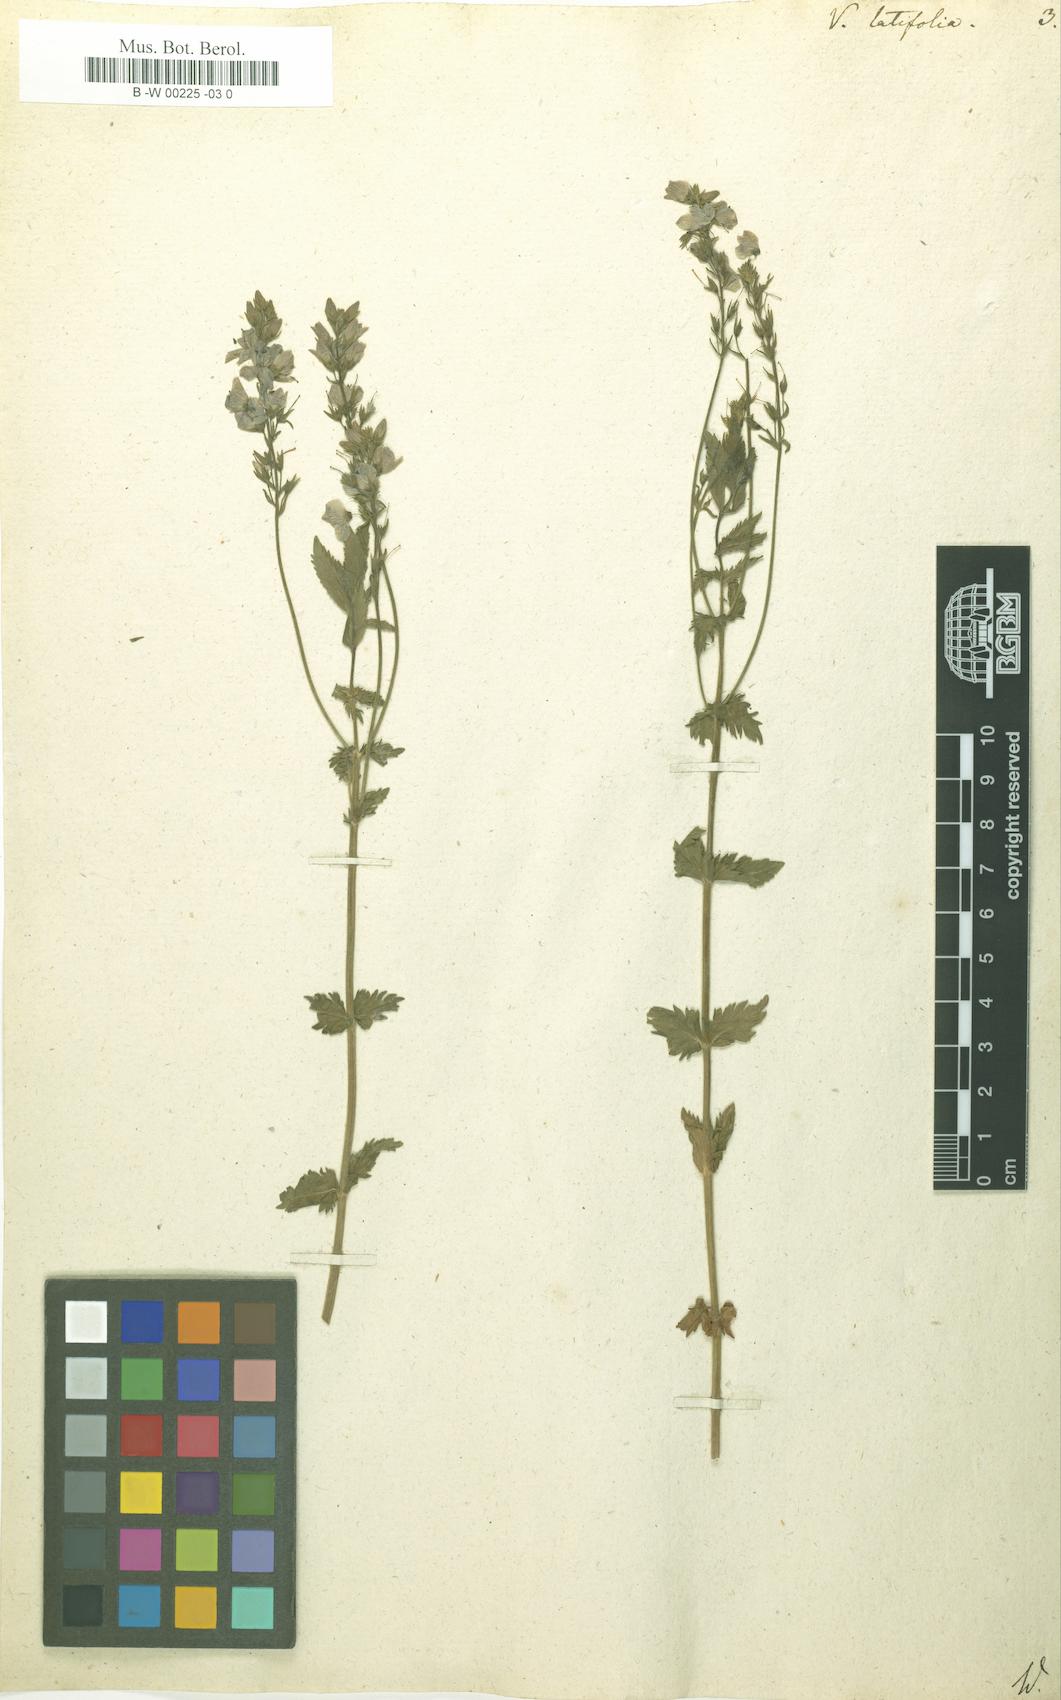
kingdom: Plantae
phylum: Tracheophyta
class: Magnoliopsida
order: Lamiales
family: Plantaginaceae
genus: Veronica
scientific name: Veronica latifolia
